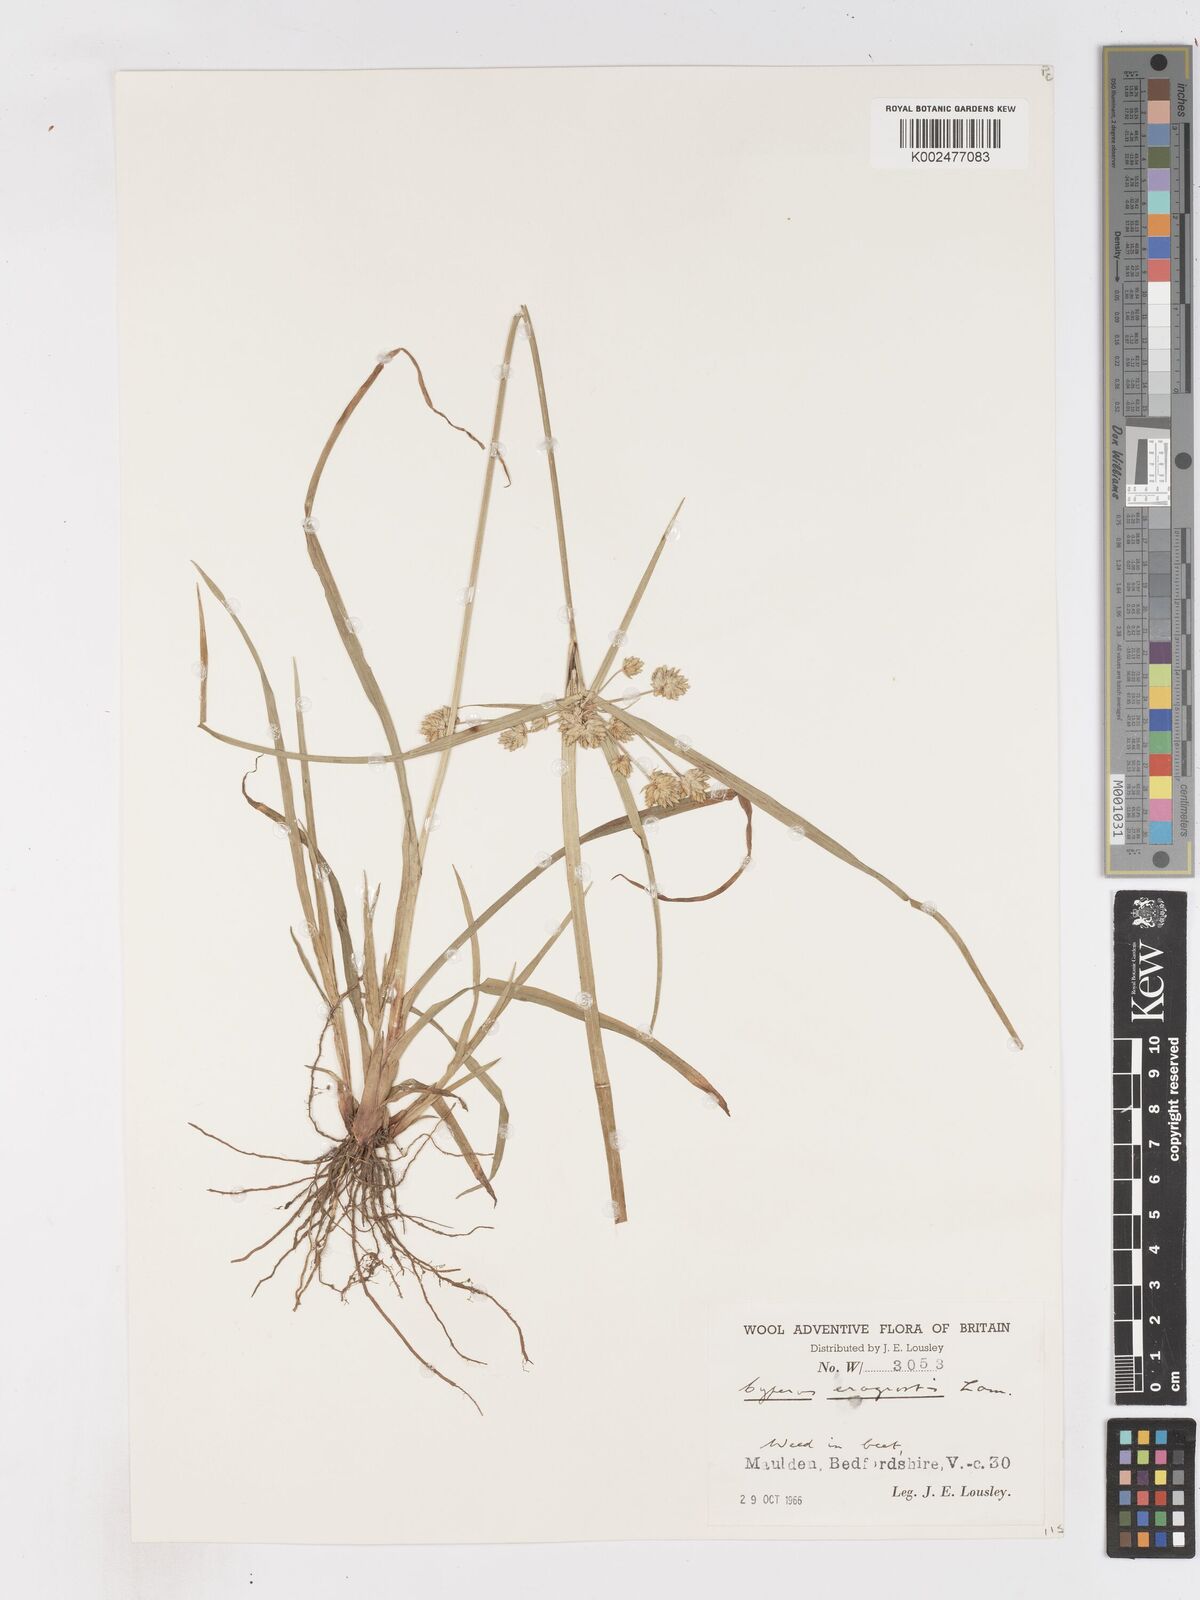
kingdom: Plantae
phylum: Tracheophyta
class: Liliopsida
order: Poales
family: Cyperaceae
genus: Cyperus
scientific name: Cyperus eragrostis
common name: Tall flatsedge
